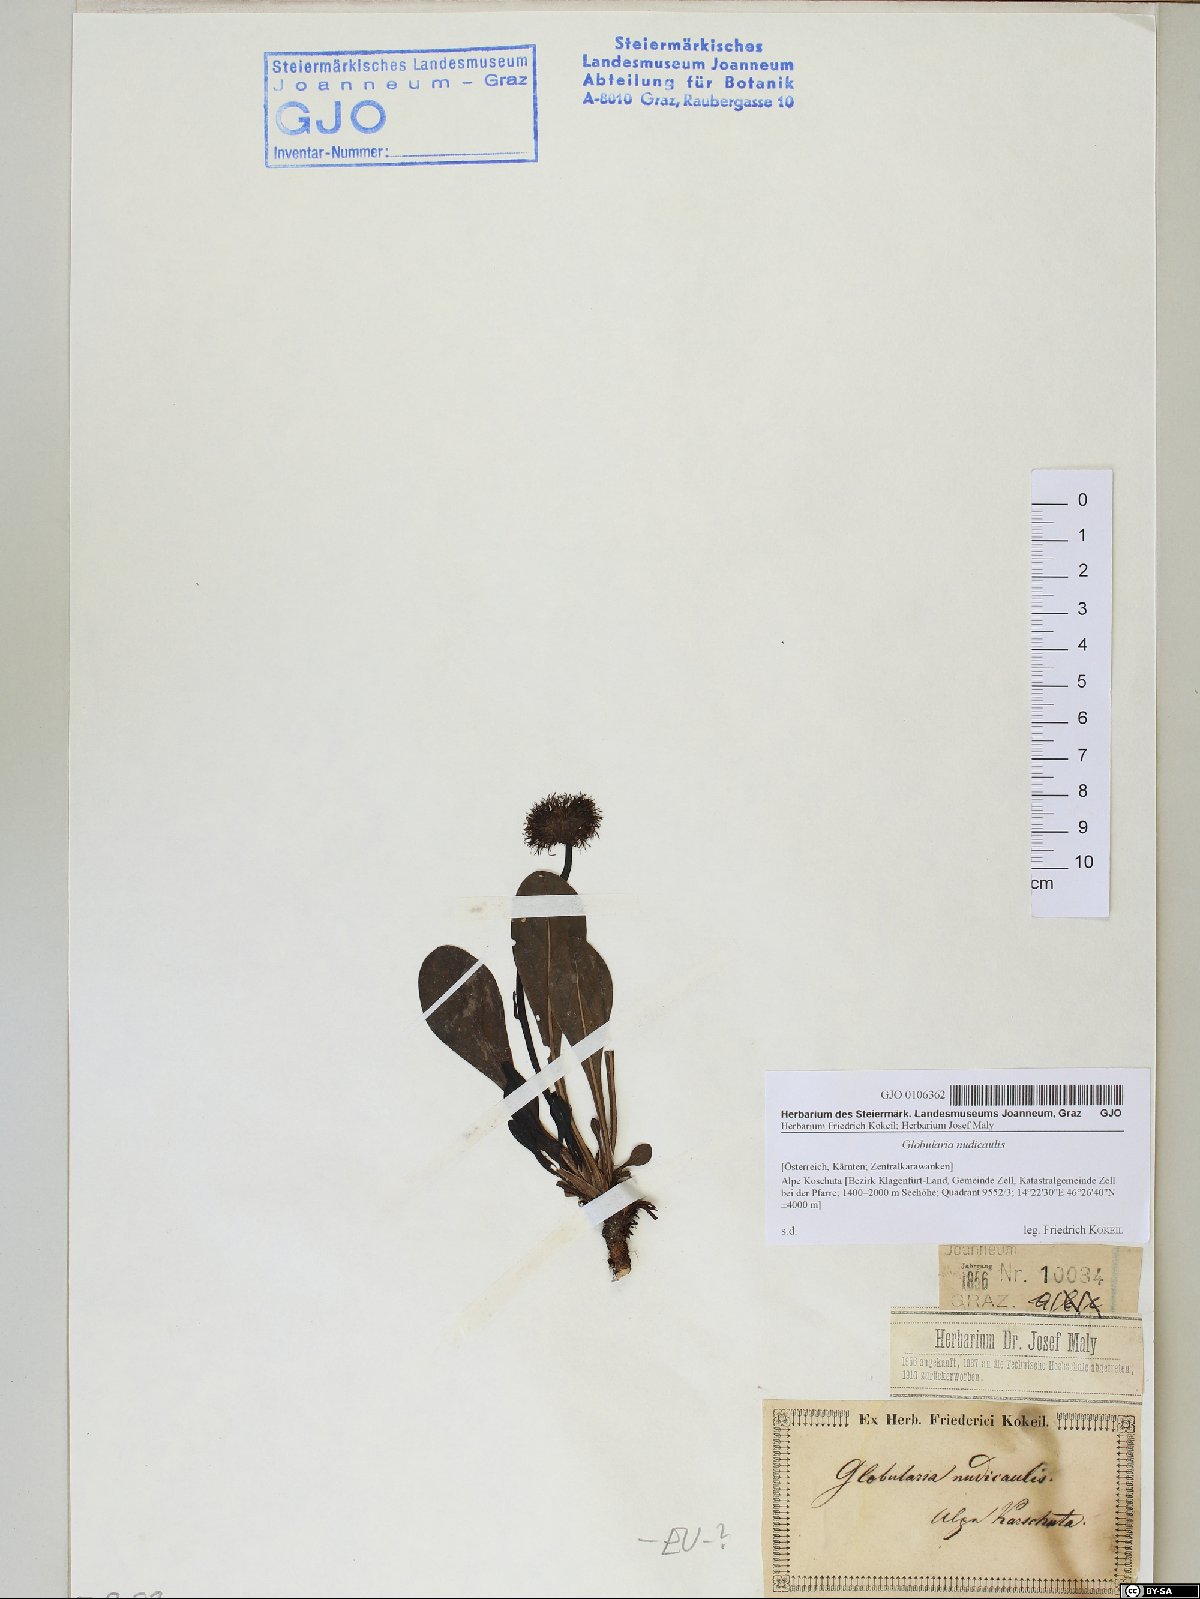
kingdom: Plantae
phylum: Tracheophyta
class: Magnoliopsida
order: Lamiales
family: Plantaginaceae
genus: Globularia
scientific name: Globularia nudicaulis
